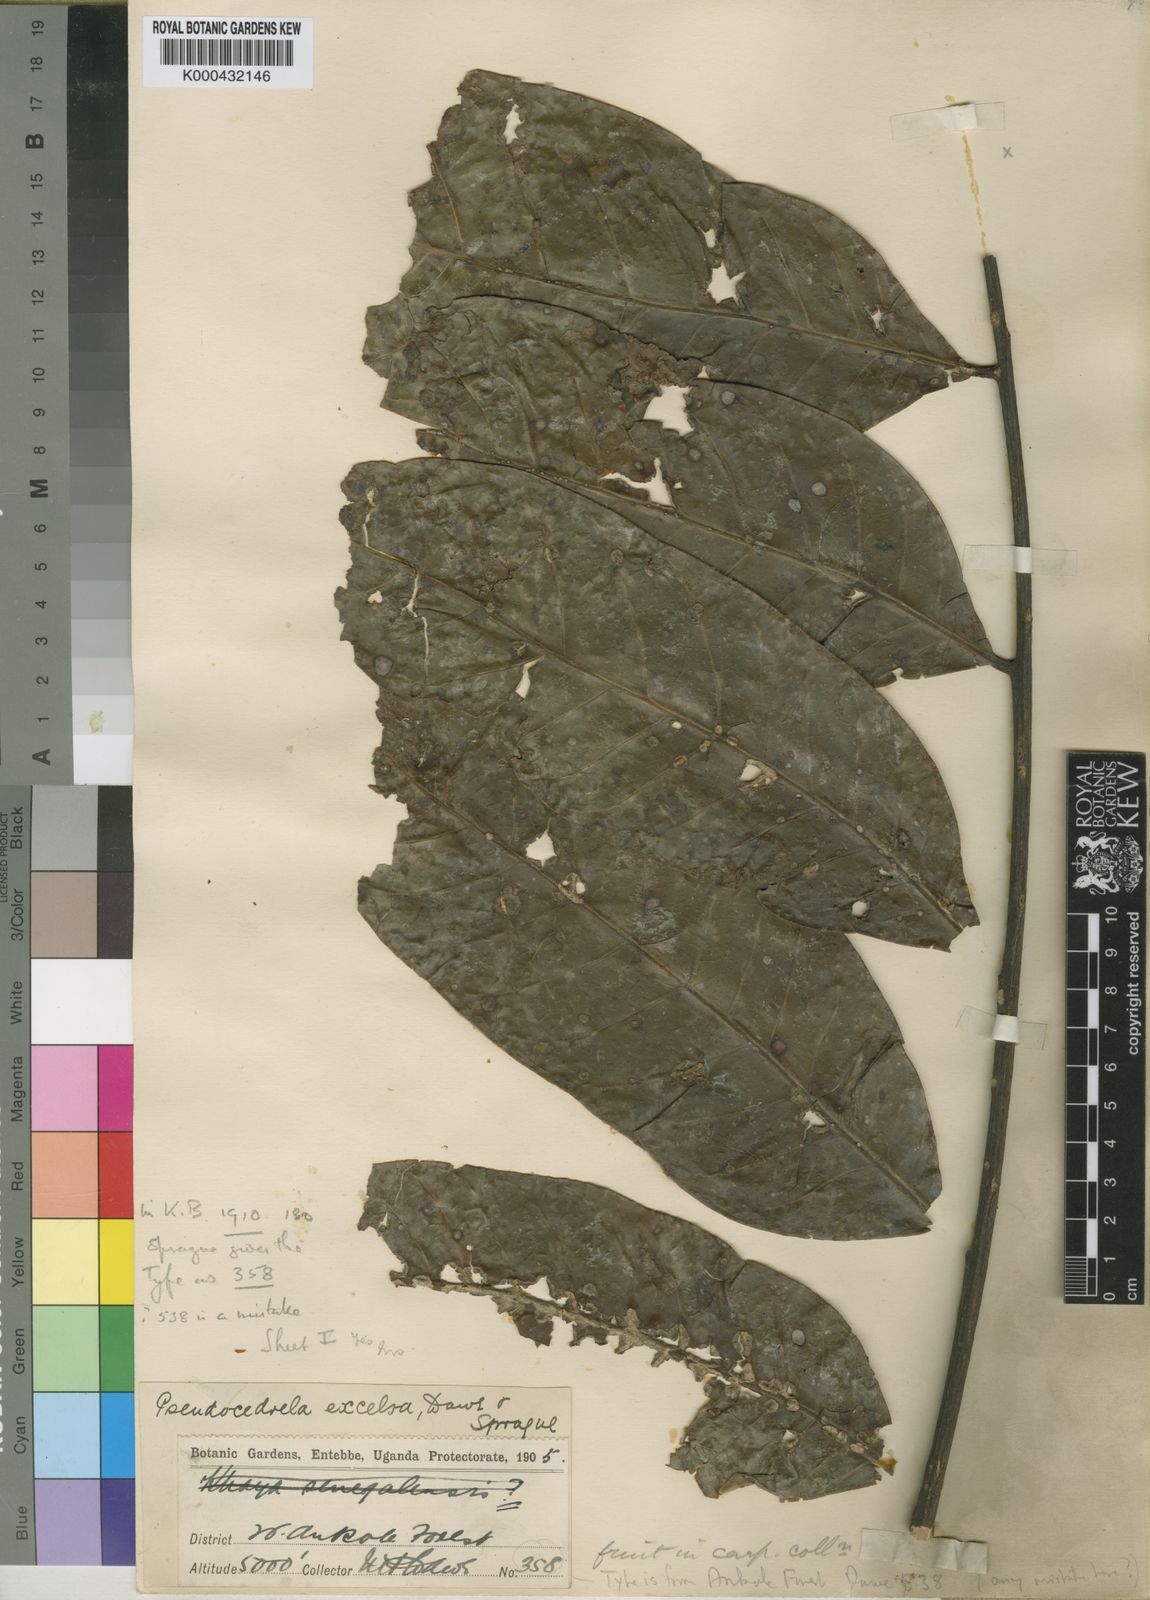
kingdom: Plantae
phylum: Tracheophyta
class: Magnoliopsida
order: Sapindales
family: Meliaceae
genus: Entandrophragma
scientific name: Entandrophragma excelsum
